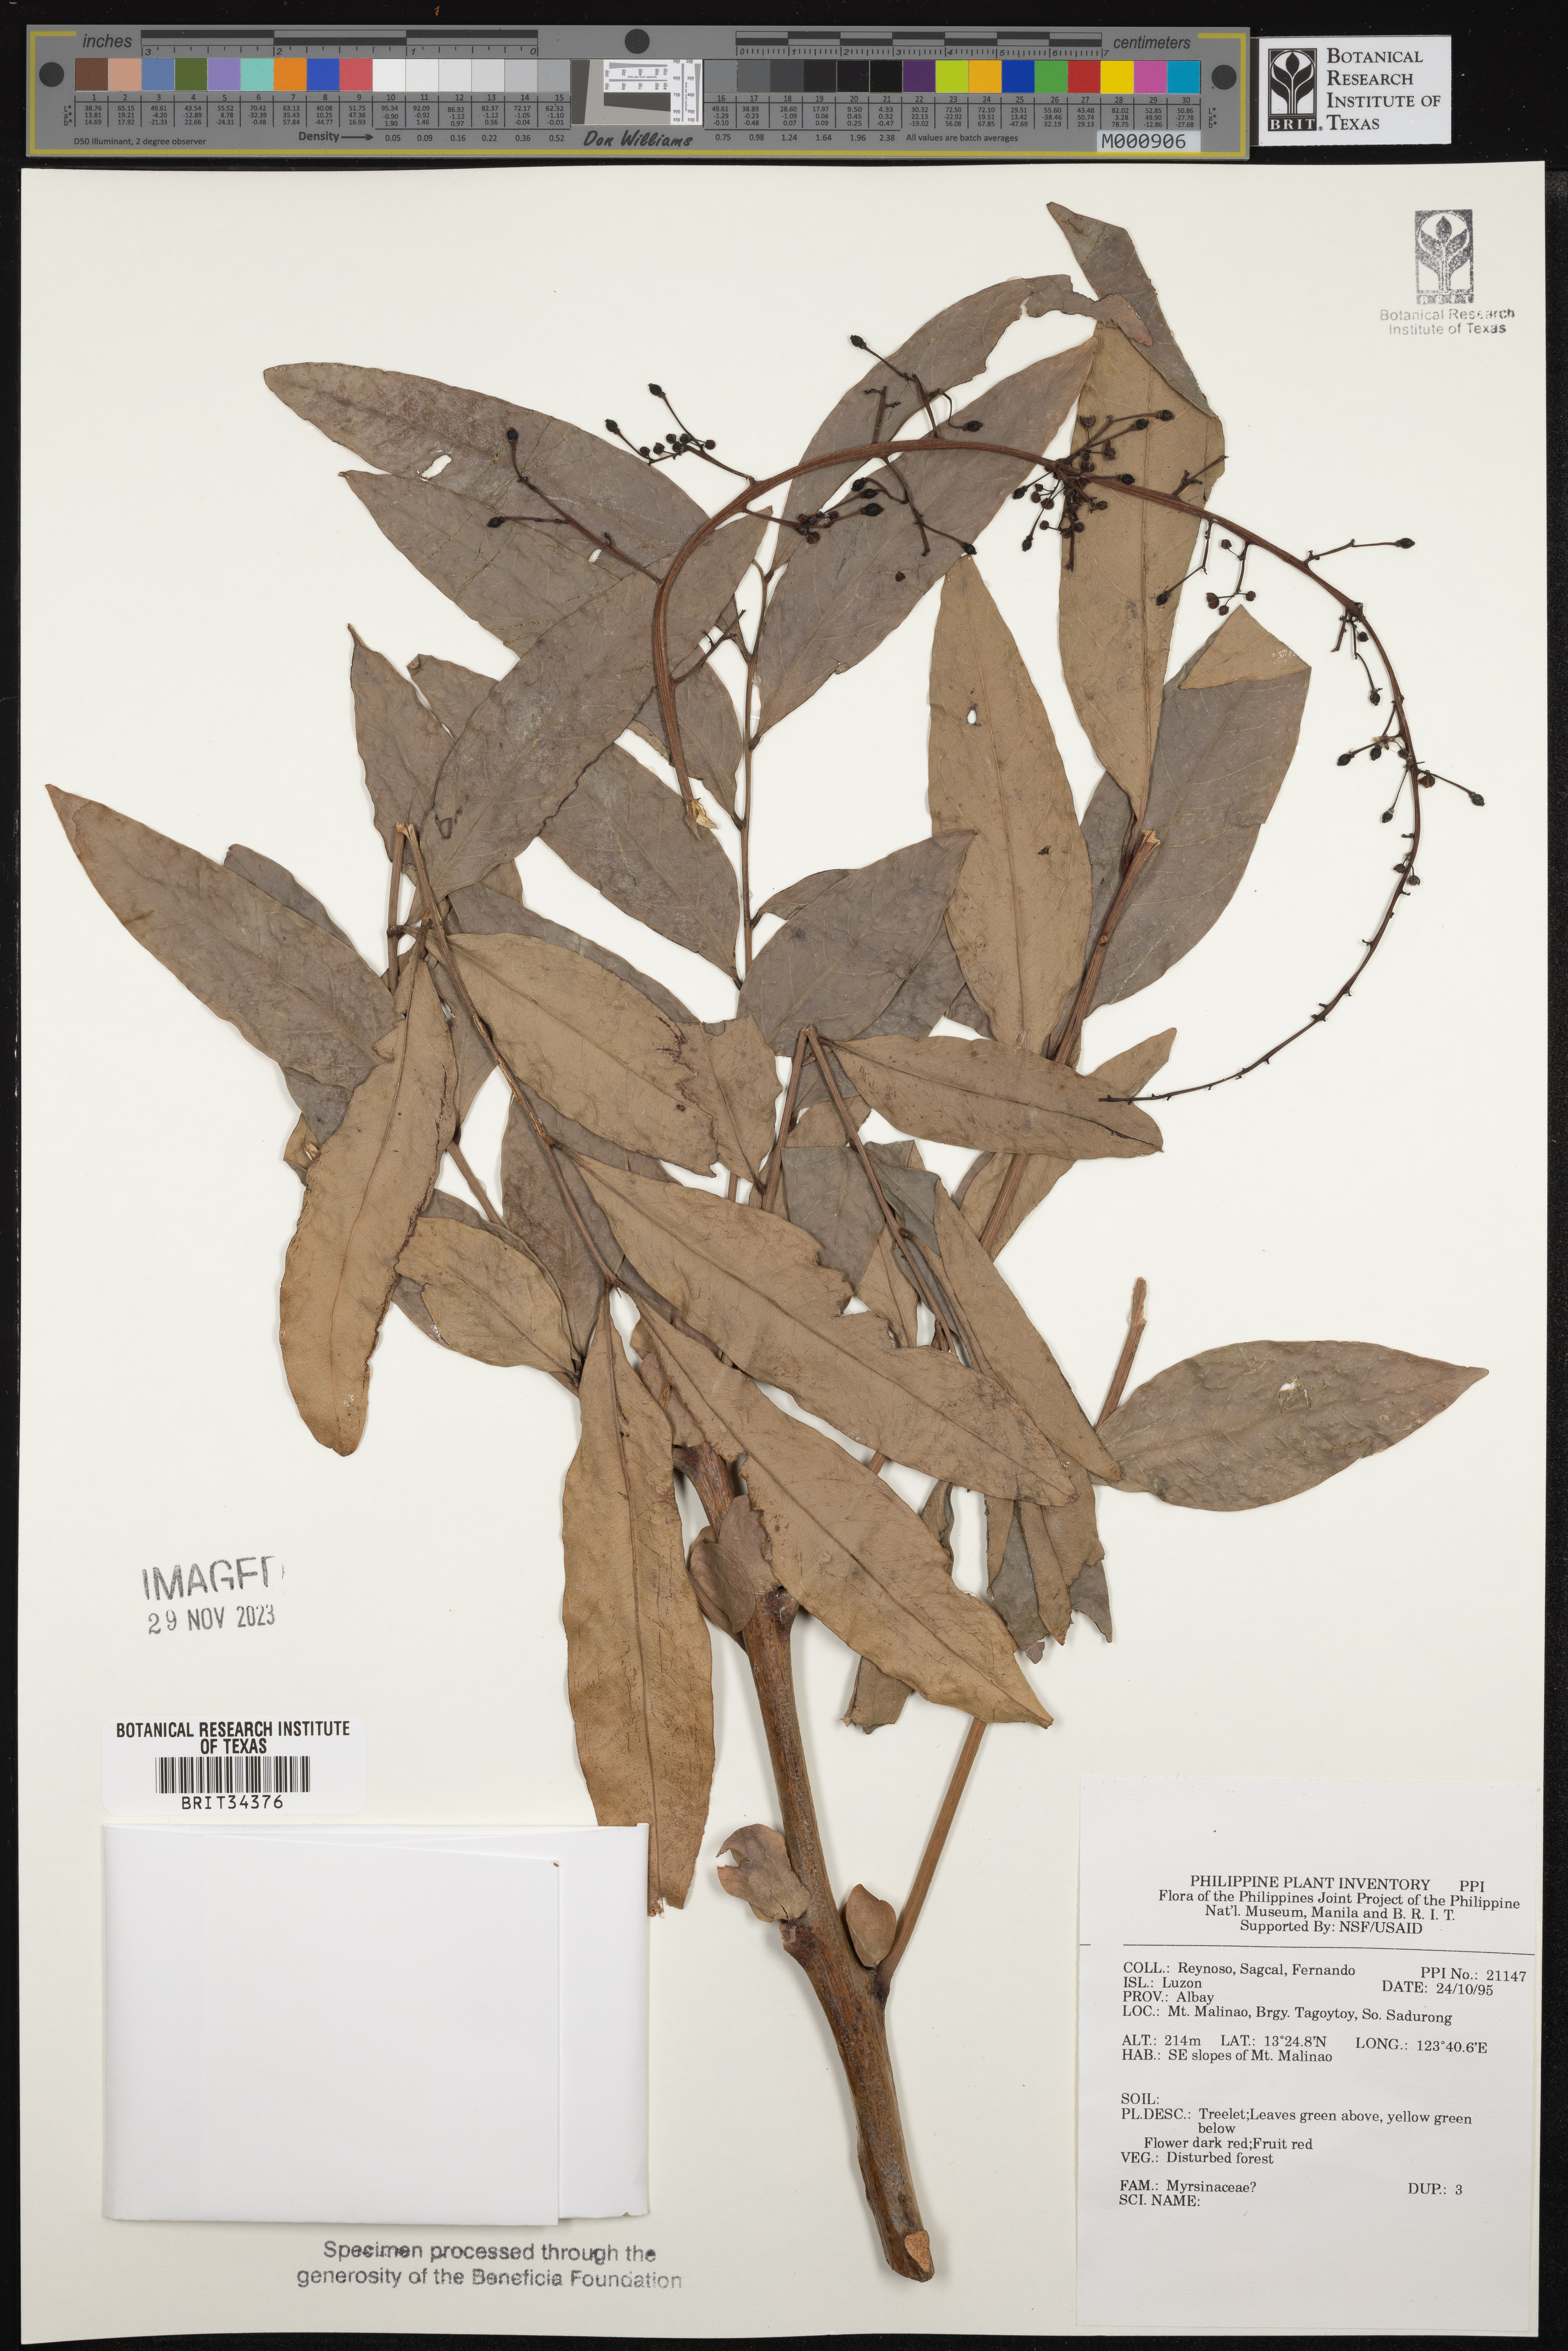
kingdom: Plantae
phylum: Tracheophyta
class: Magnoliopsida
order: Ericales
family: Primulaceae
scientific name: Primulaceae
